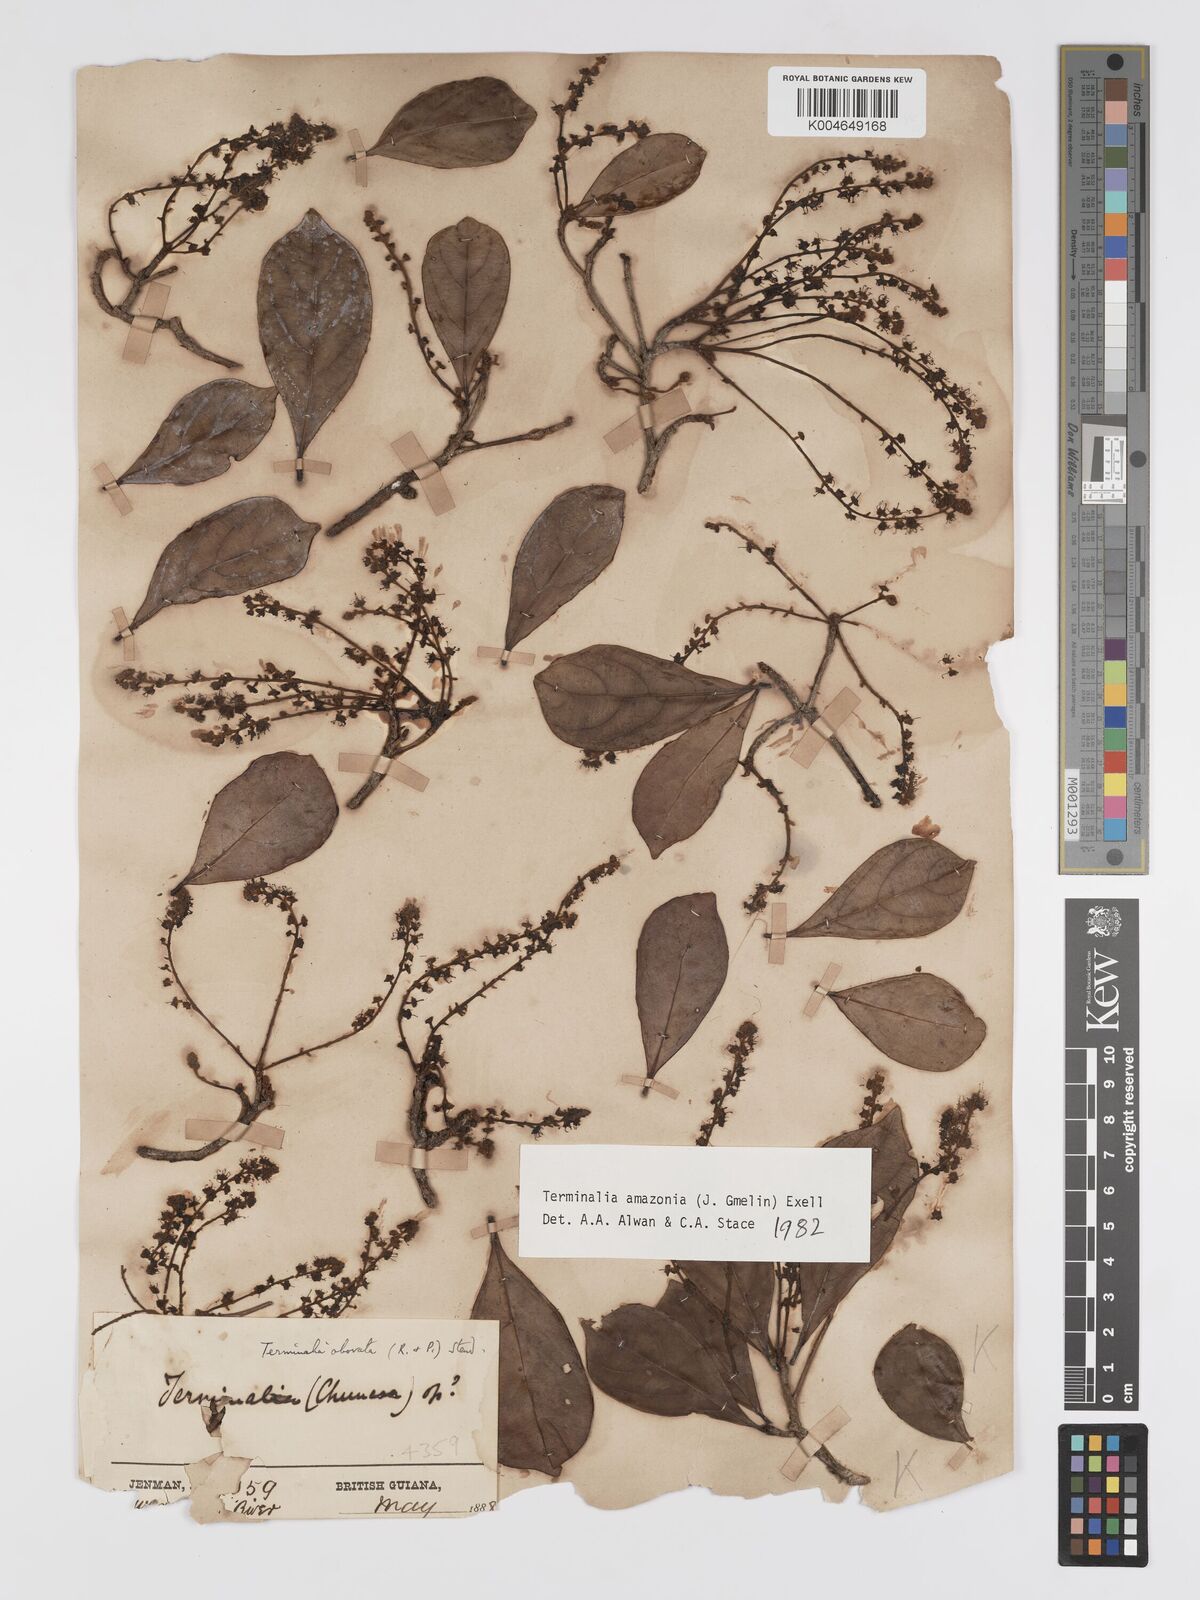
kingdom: Plantae
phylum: Tracheophyta
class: Magnoliopsida
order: Myrtales
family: Combretaceae
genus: Terminalia
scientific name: Terminalia amazonica
